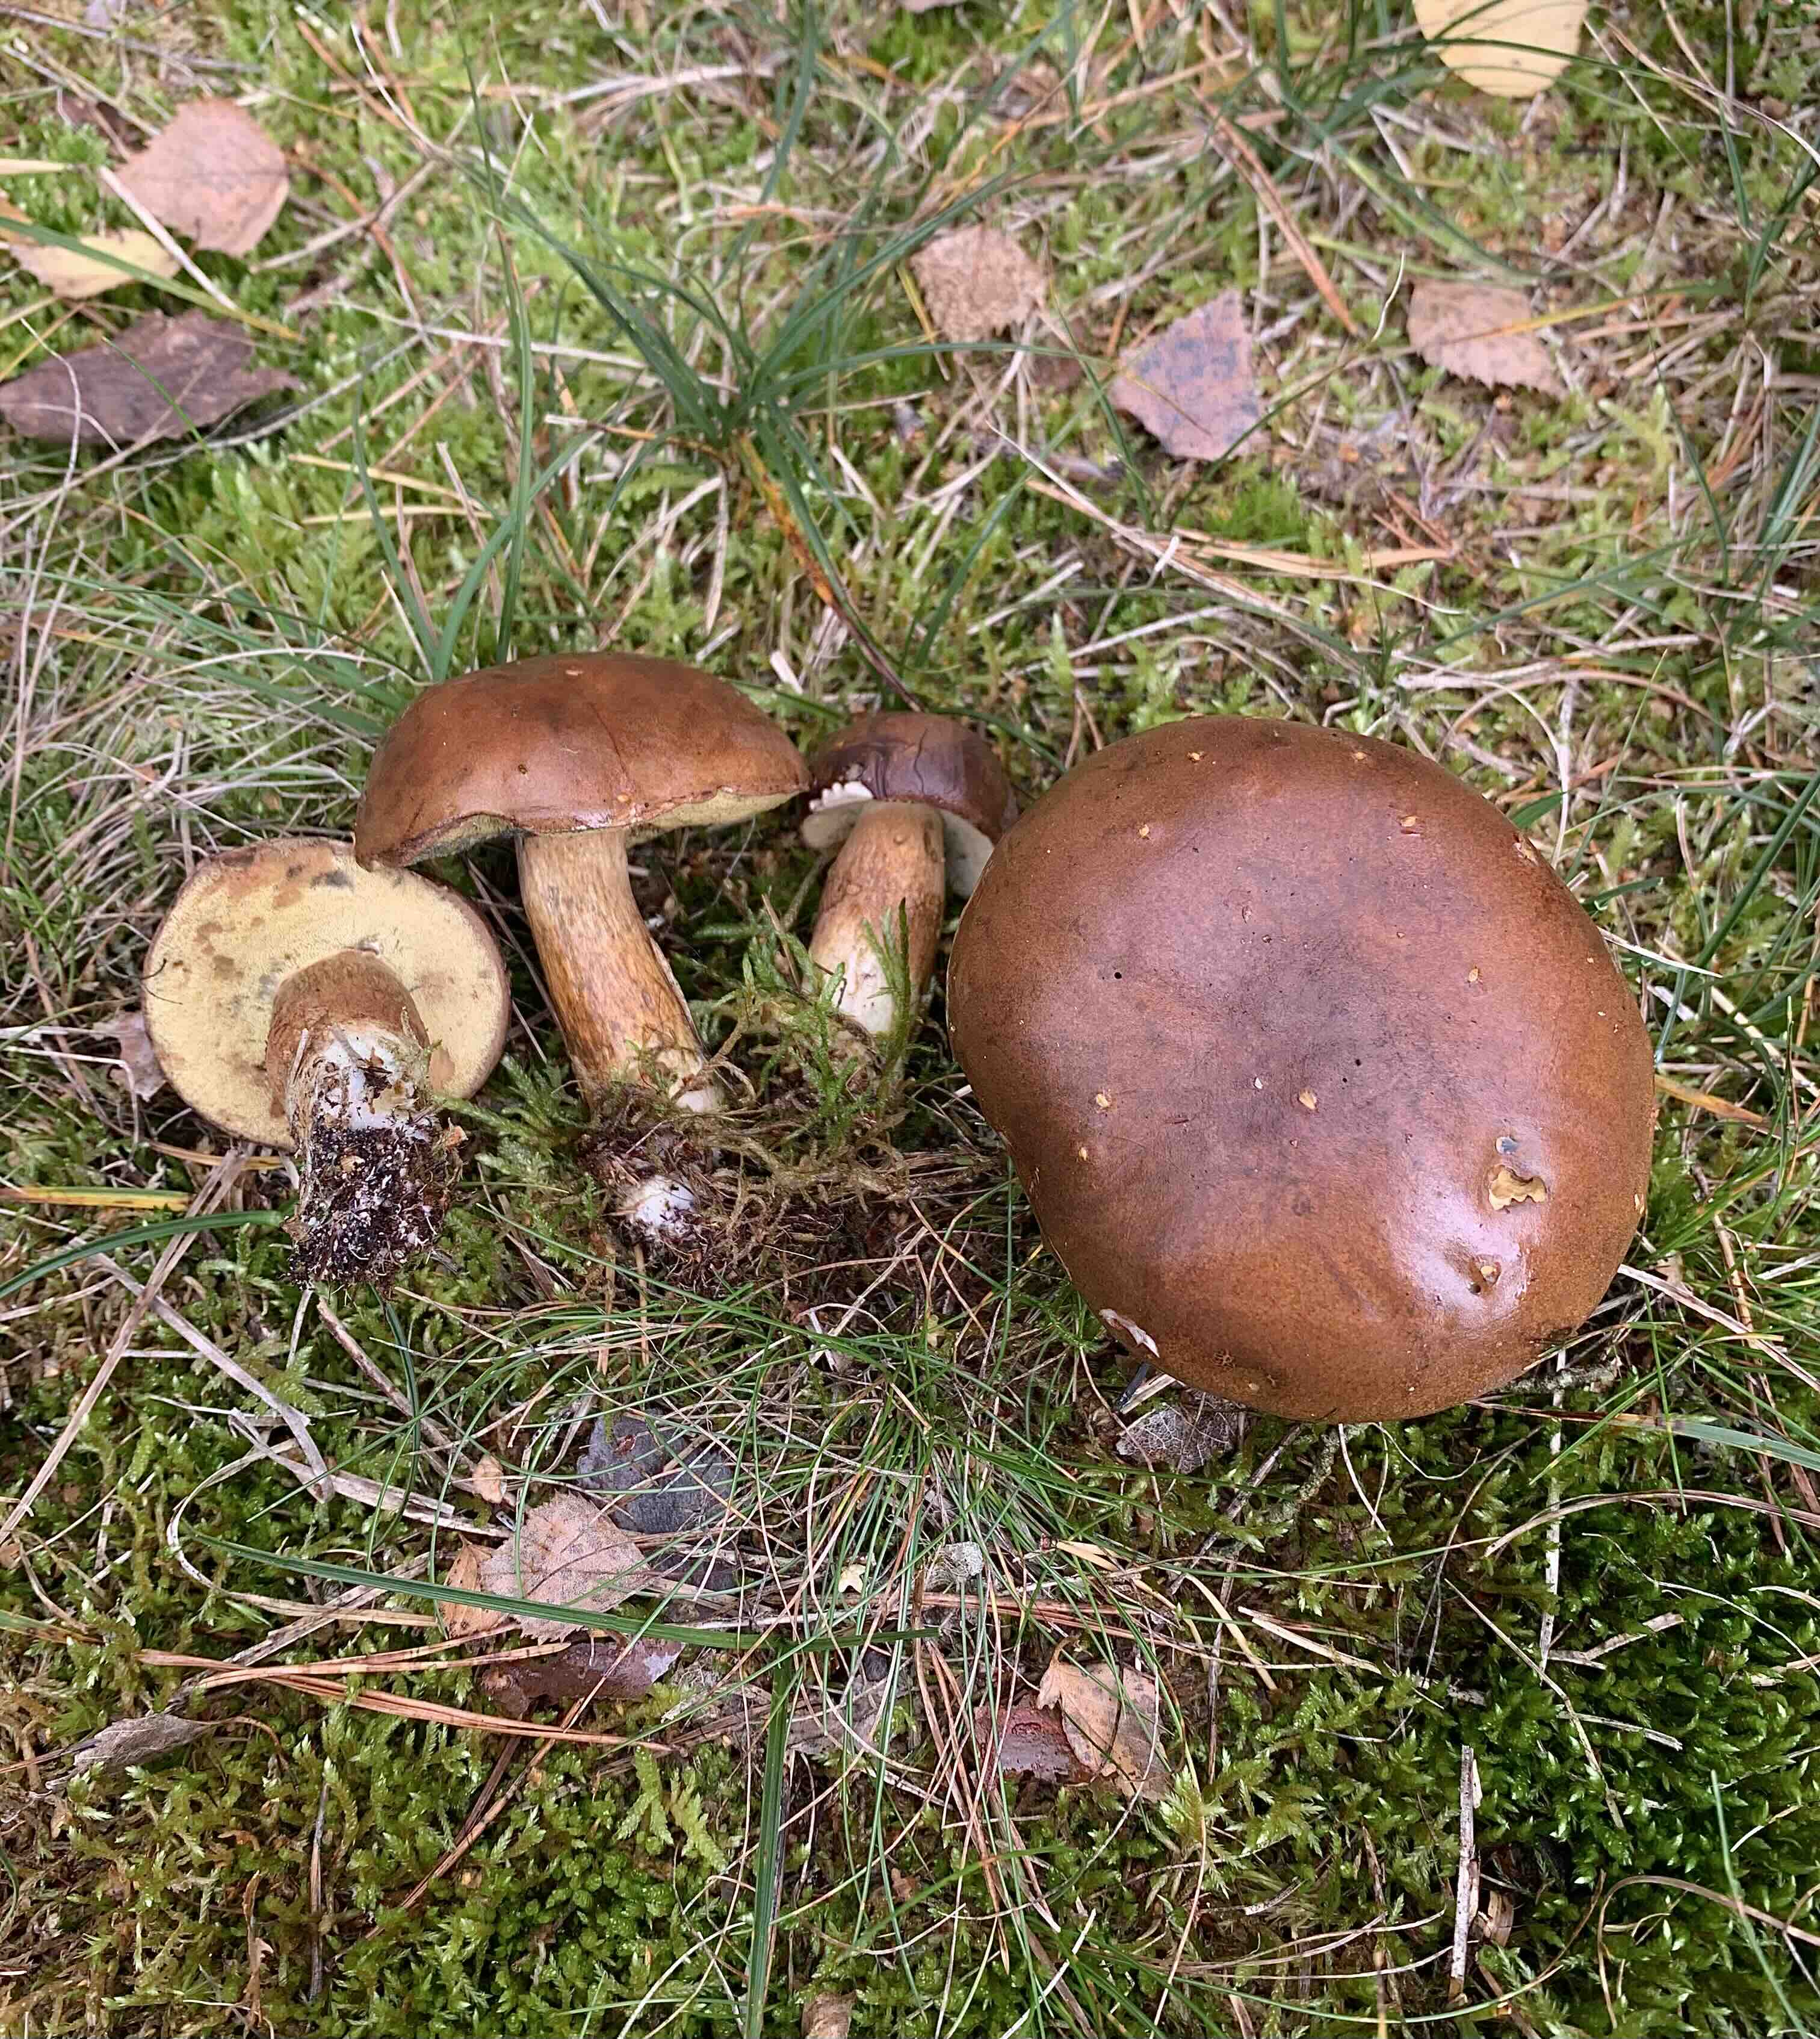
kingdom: Fungi
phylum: Basidiomycota
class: Agaricomycetes
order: Boletales
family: Boletaceae
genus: Imleria
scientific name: Imleria badia
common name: brunstokket rørhat
